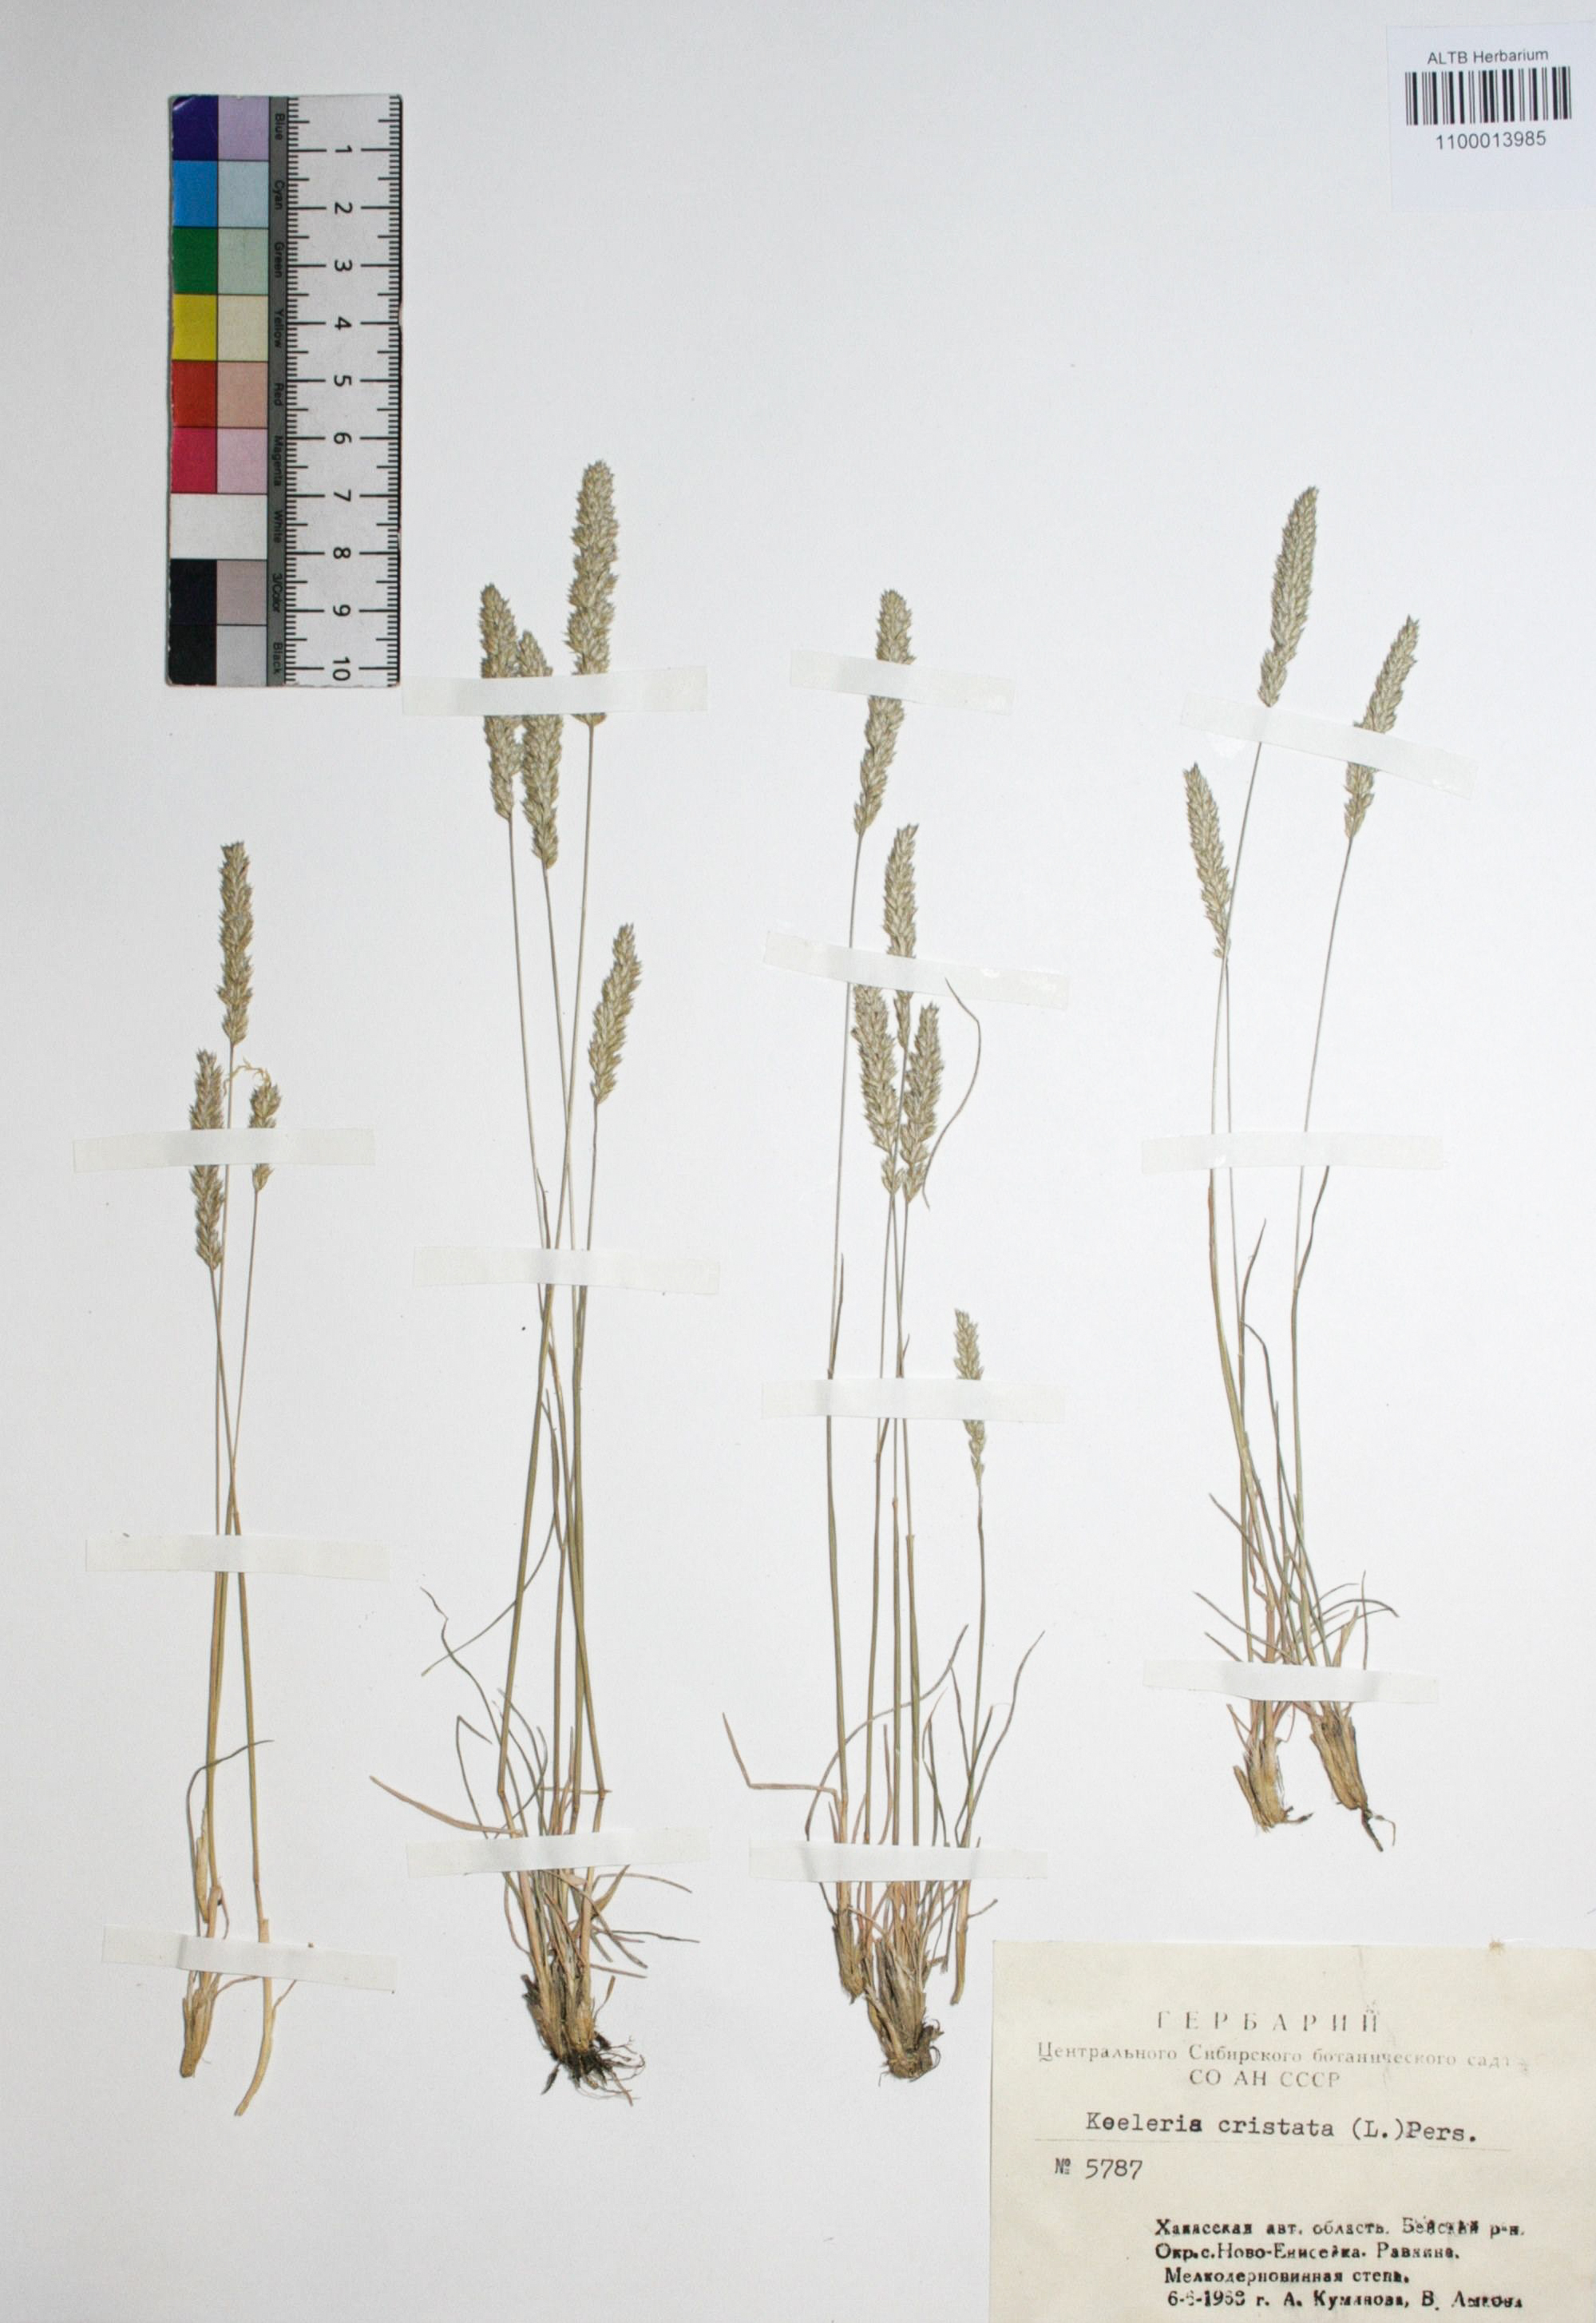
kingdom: Plantae
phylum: Tracheophyta
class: Liliopsida
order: Poales
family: Poaceae
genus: Setaria
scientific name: Setaria viridis
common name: Green bristlegrass
